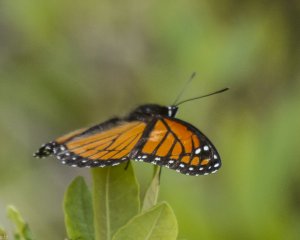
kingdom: Animalia
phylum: Arthropoda
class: Insecta
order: Lepidoptera
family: Nymphalidae
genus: Limenitis
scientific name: Limenitis archippus
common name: Viceroy
